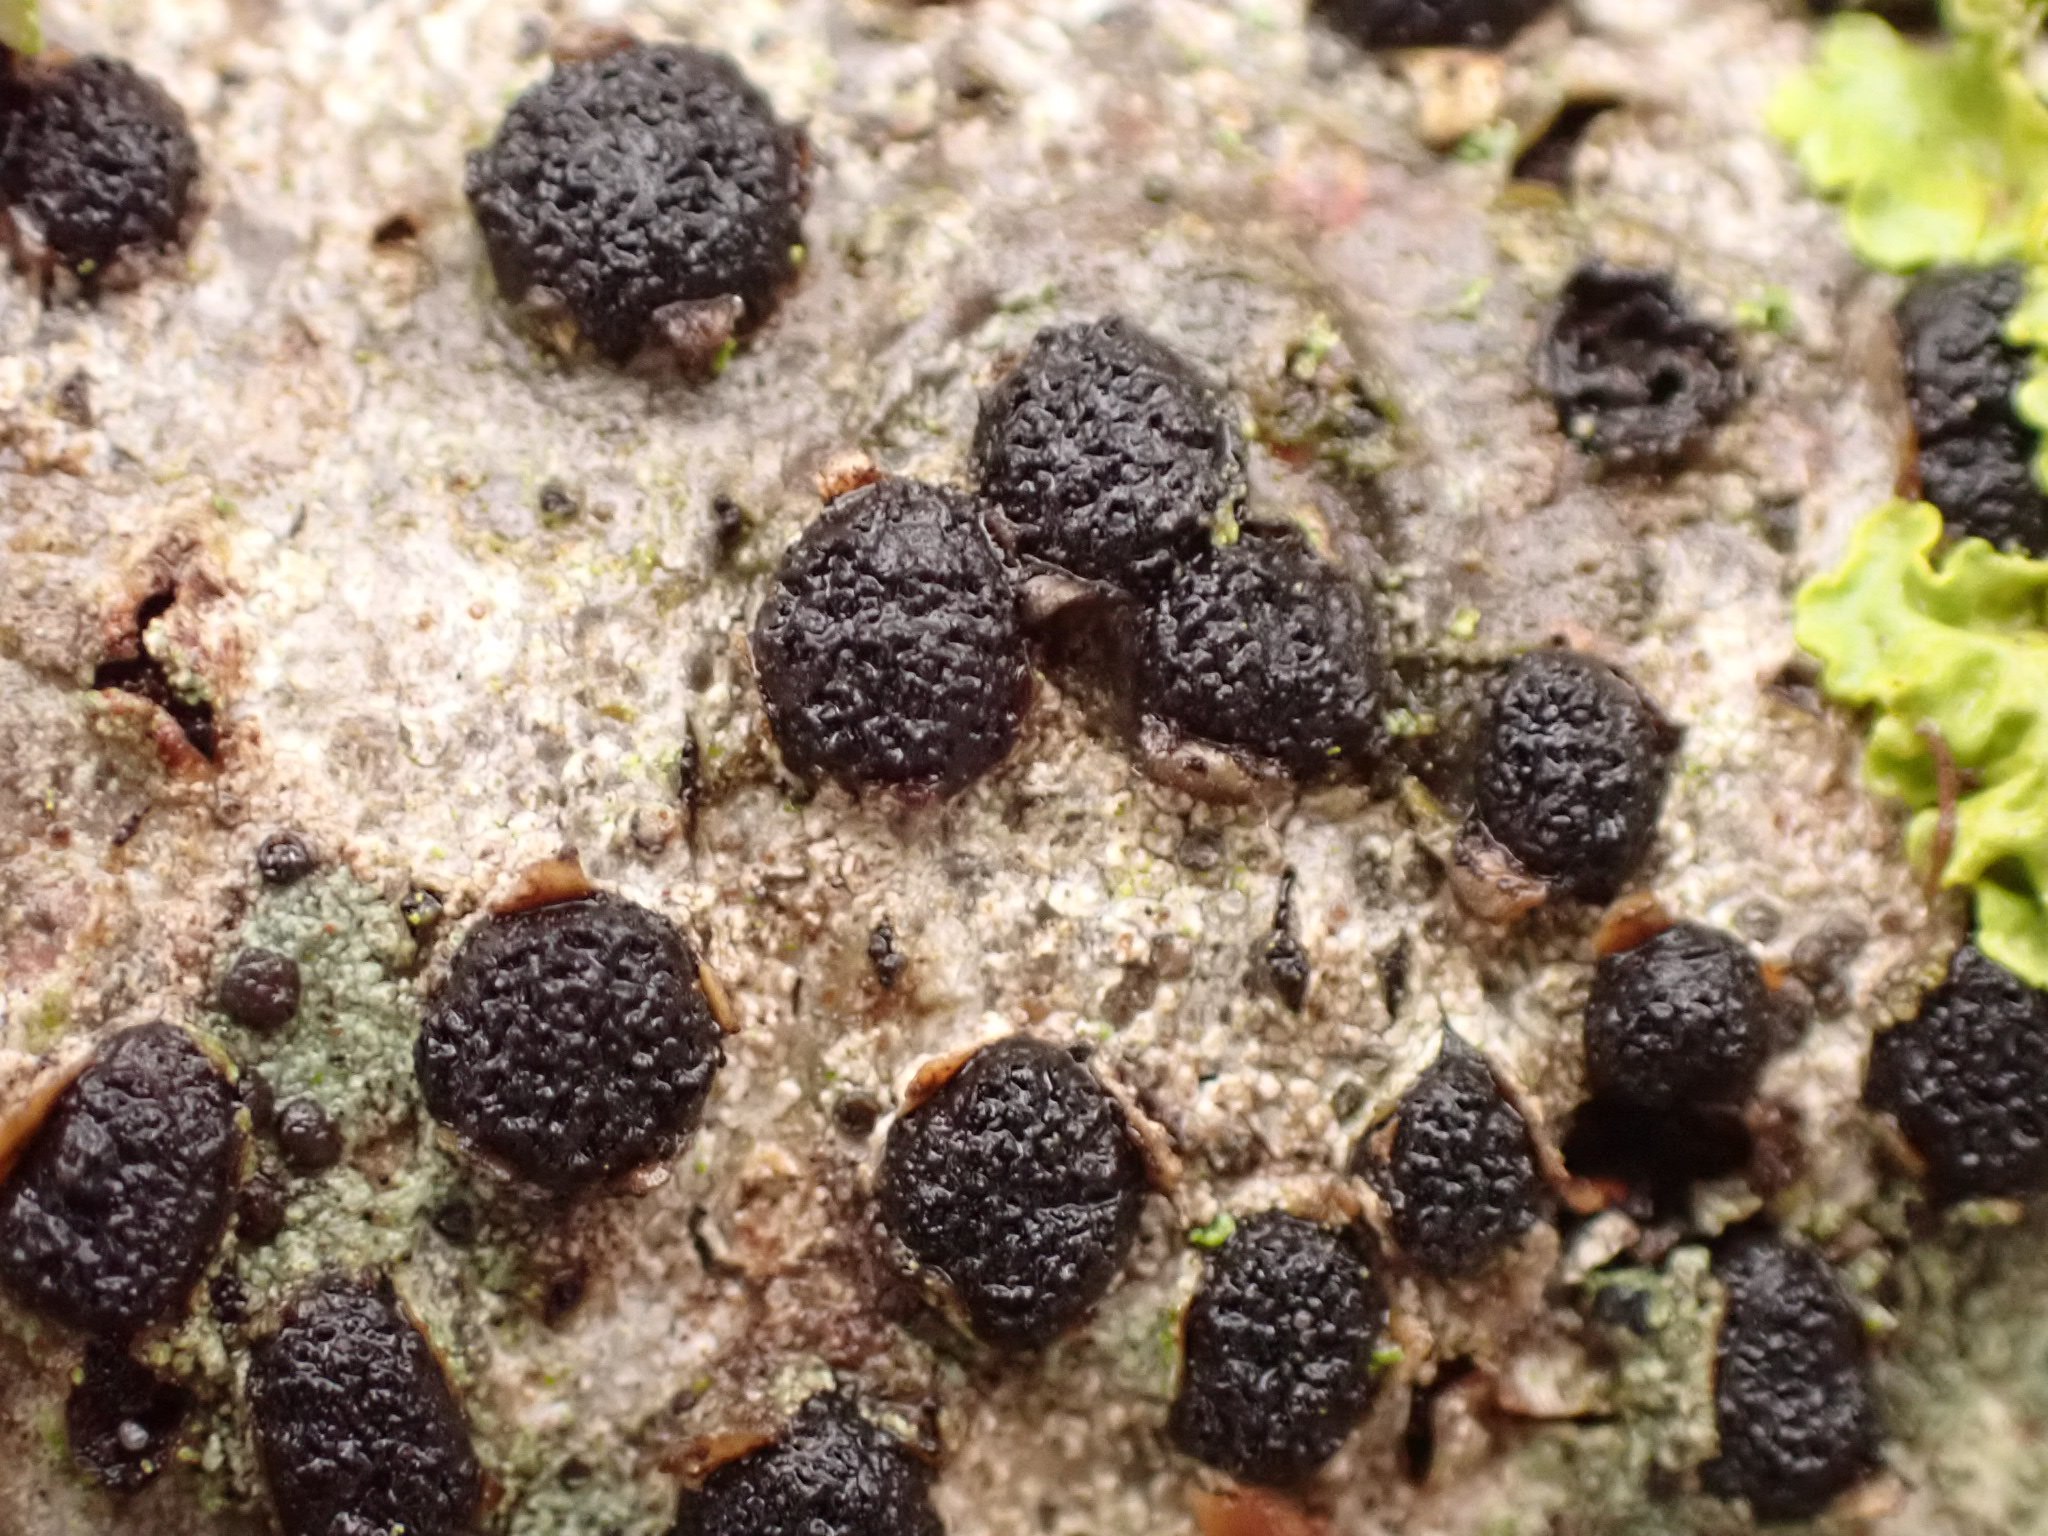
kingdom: Fungi
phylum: Ascomycota
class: Sordariomycetes
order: Xylariales
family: Diatrypaceae
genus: Diatrypella
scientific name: Diatrypella quercina
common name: ege-kulskorpe
